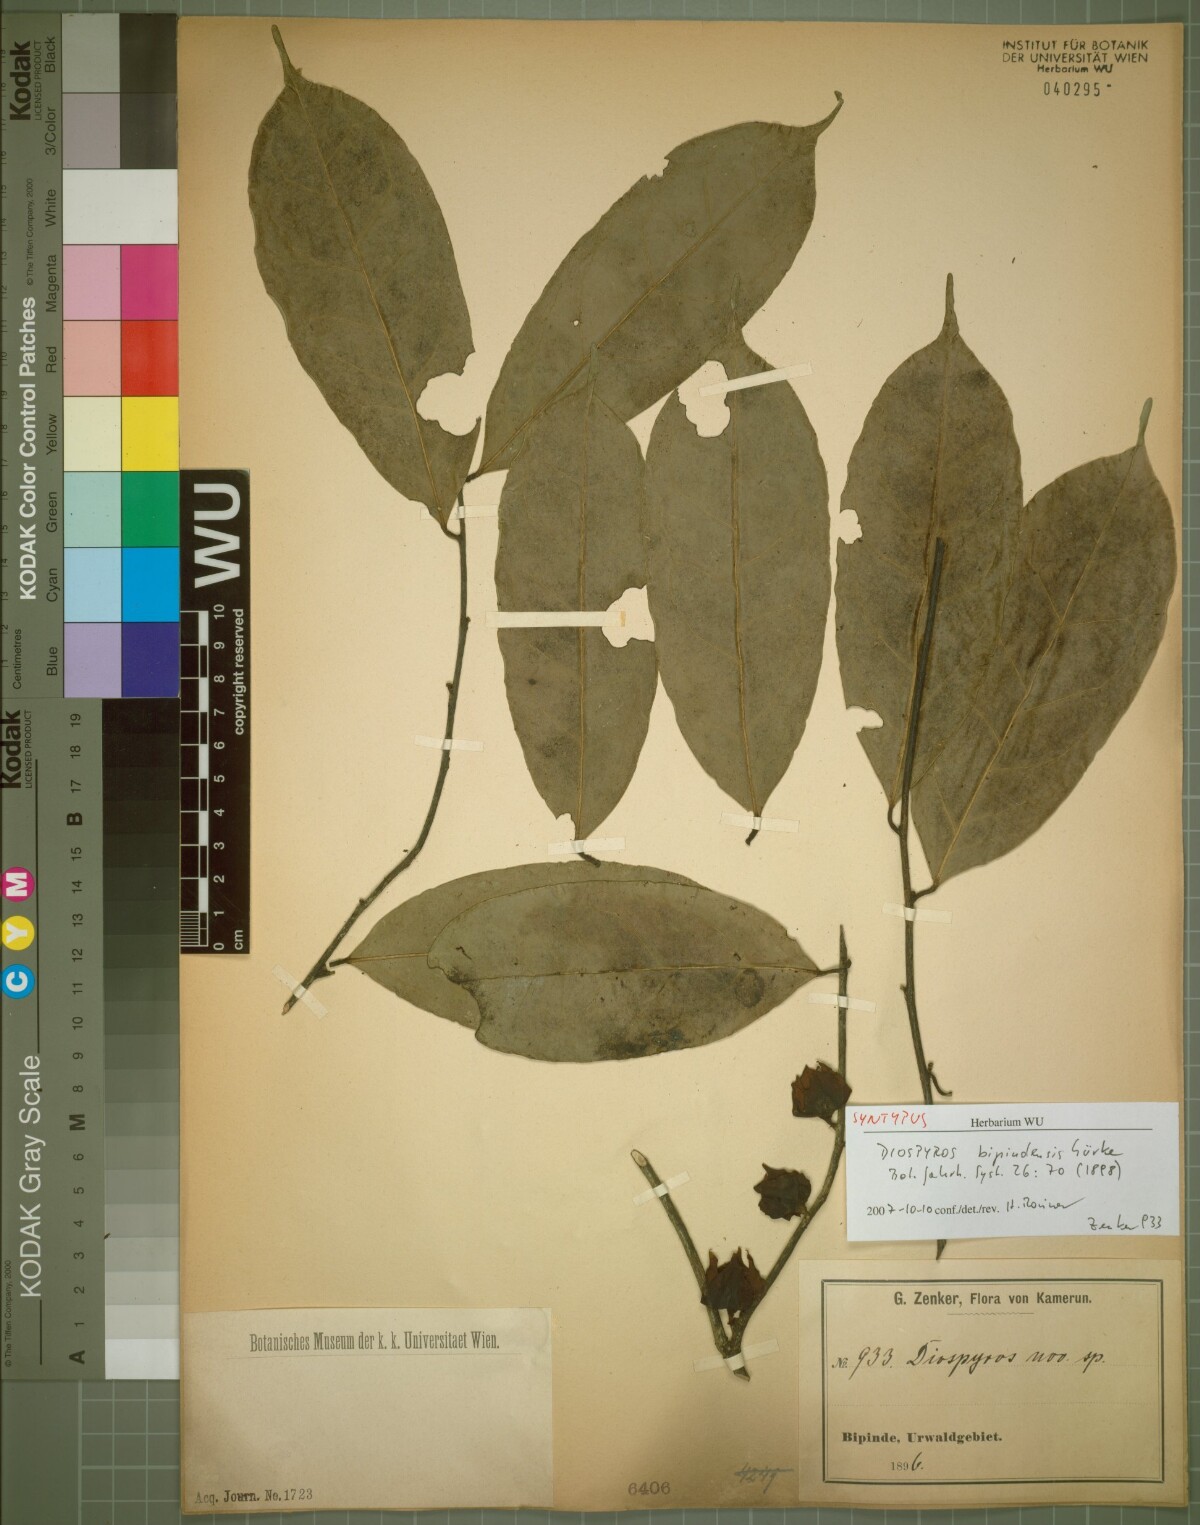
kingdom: Plantae
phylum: Tracheophyta
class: Magnoliopsida
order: Ericales
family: Ebenaceae
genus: Diospyros
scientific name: Diospyros bipindensis
